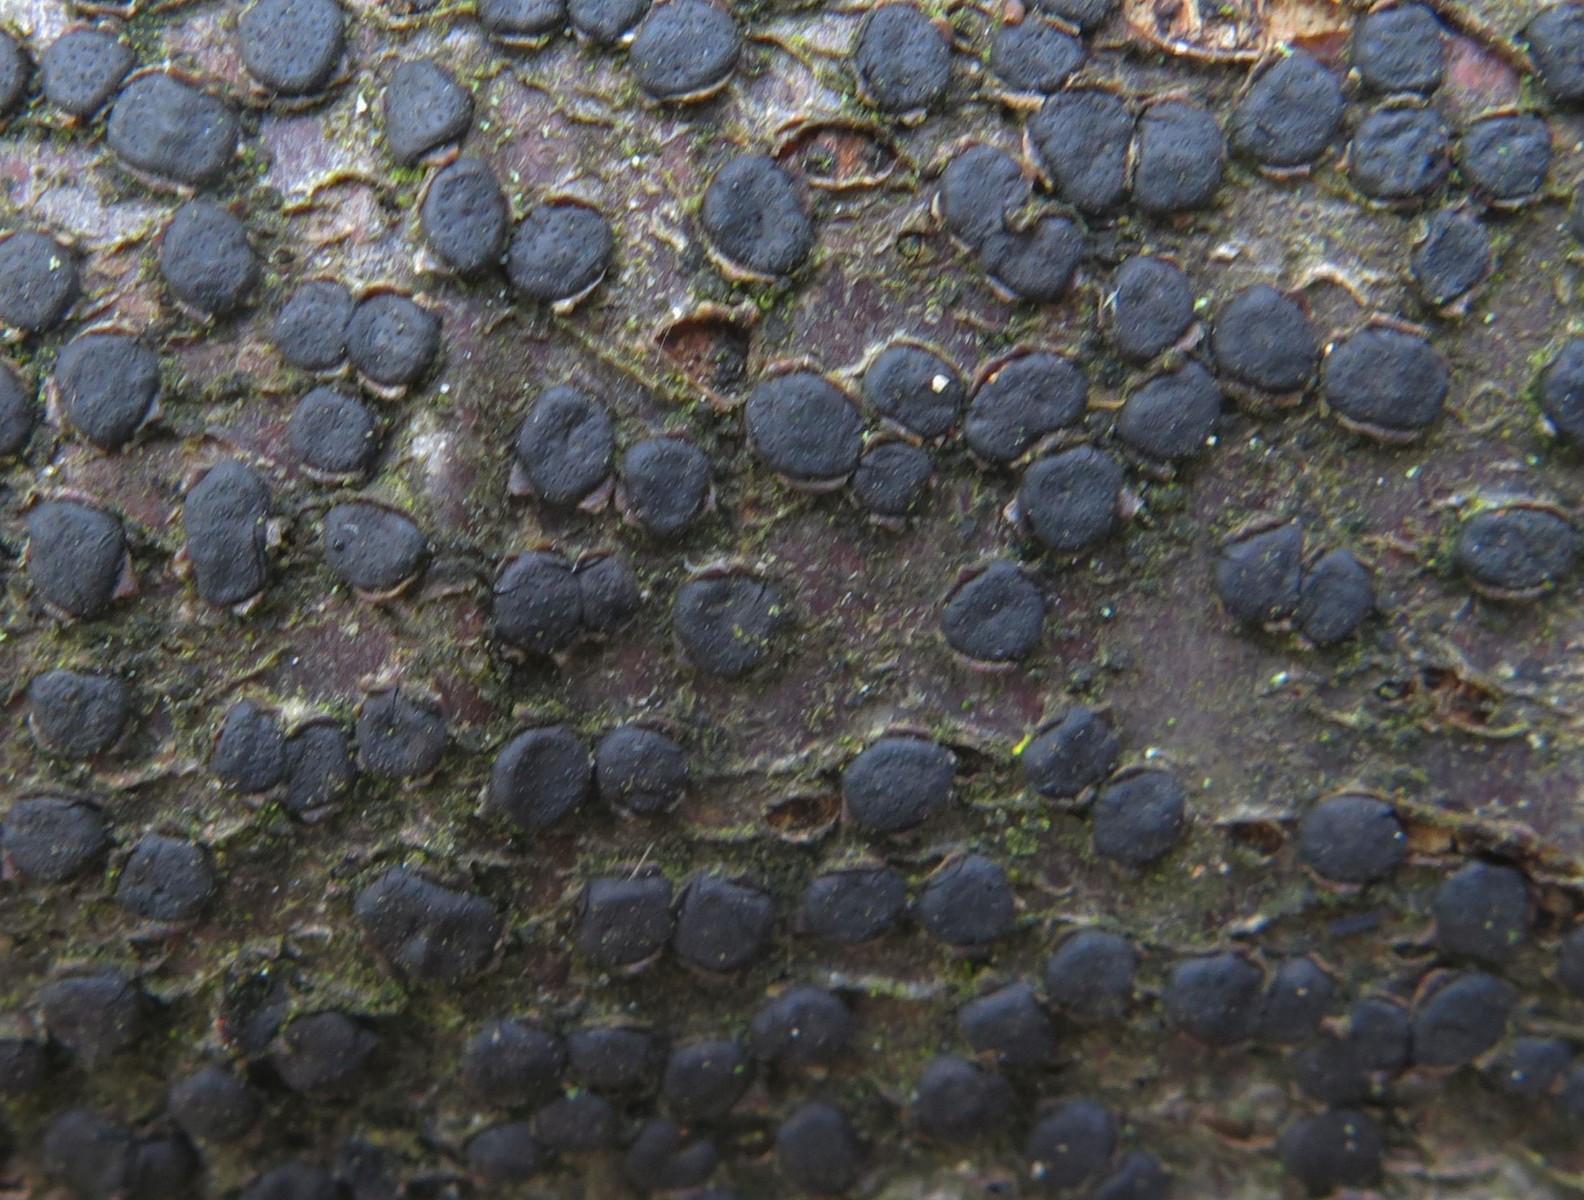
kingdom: Fungi
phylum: Ascomycota
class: Sordariomycetes
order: Xylariales
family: Diatrypaceae
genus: Diatrype
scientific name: Diatrype disciformis
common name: kant-kulskorpe
